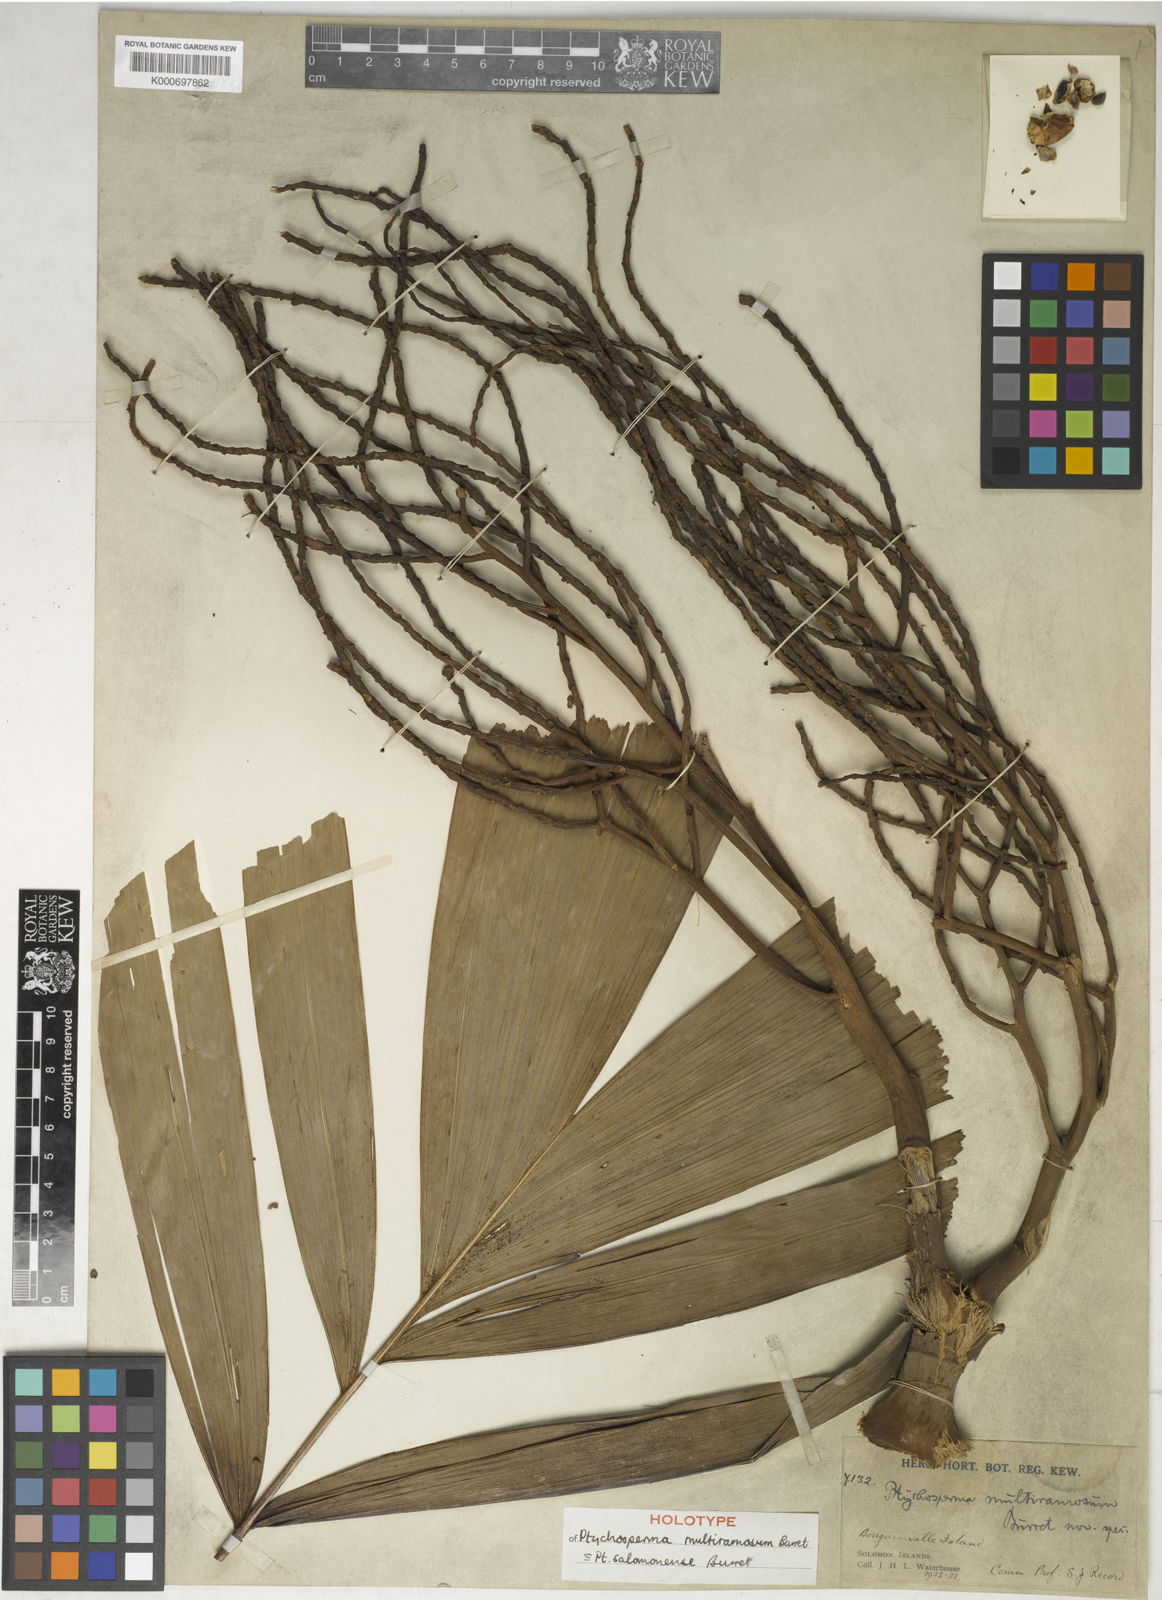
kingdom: Plantae
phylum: Tracheophyta
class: Liliopsida
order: Arecales
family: Arecaceae
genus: Ptychosperma
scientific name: Ptychosperma salomonense
